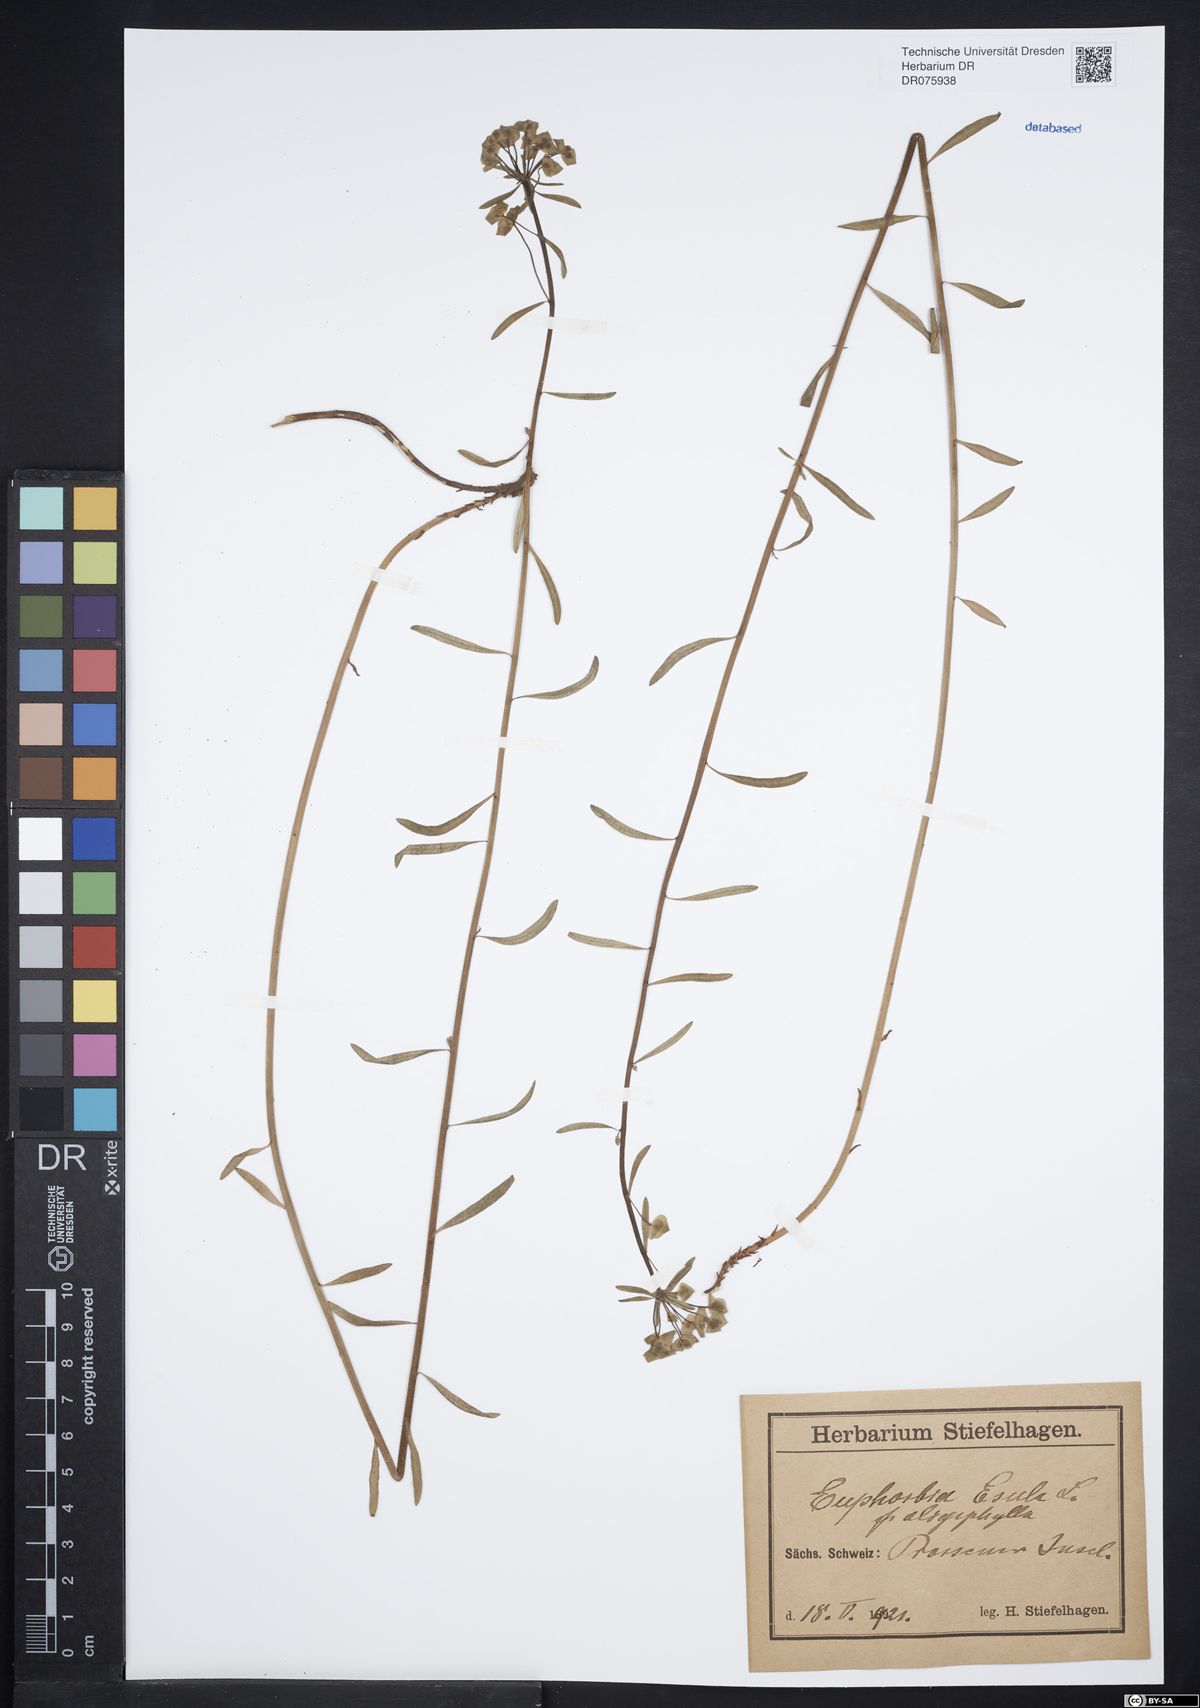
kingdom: Plantae
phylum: Tracheophyta
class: Magnoliopsida
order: Malpighiales
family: Euphorbiaceae
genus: Euphorbia
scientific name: Euphorbia esula
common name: Leafy spurge
